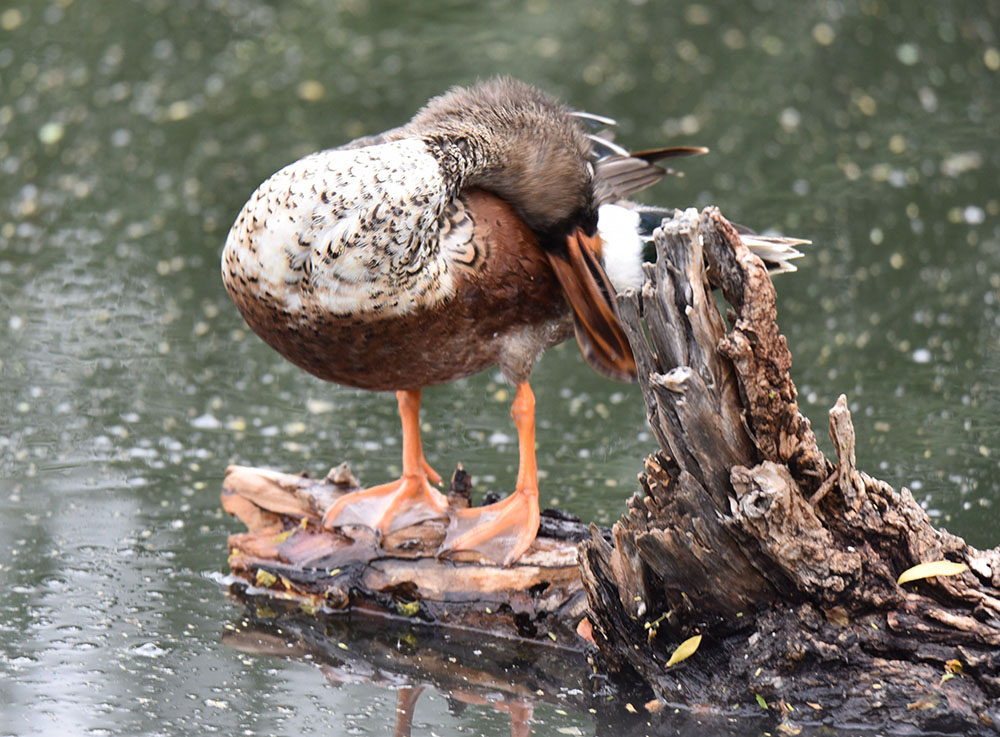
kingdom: Animalia
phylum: Chordata
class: Aves
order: Anseriformes
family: Anatidae
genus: Spatula
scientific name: Spatula clypeata
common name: Northern shoveler
